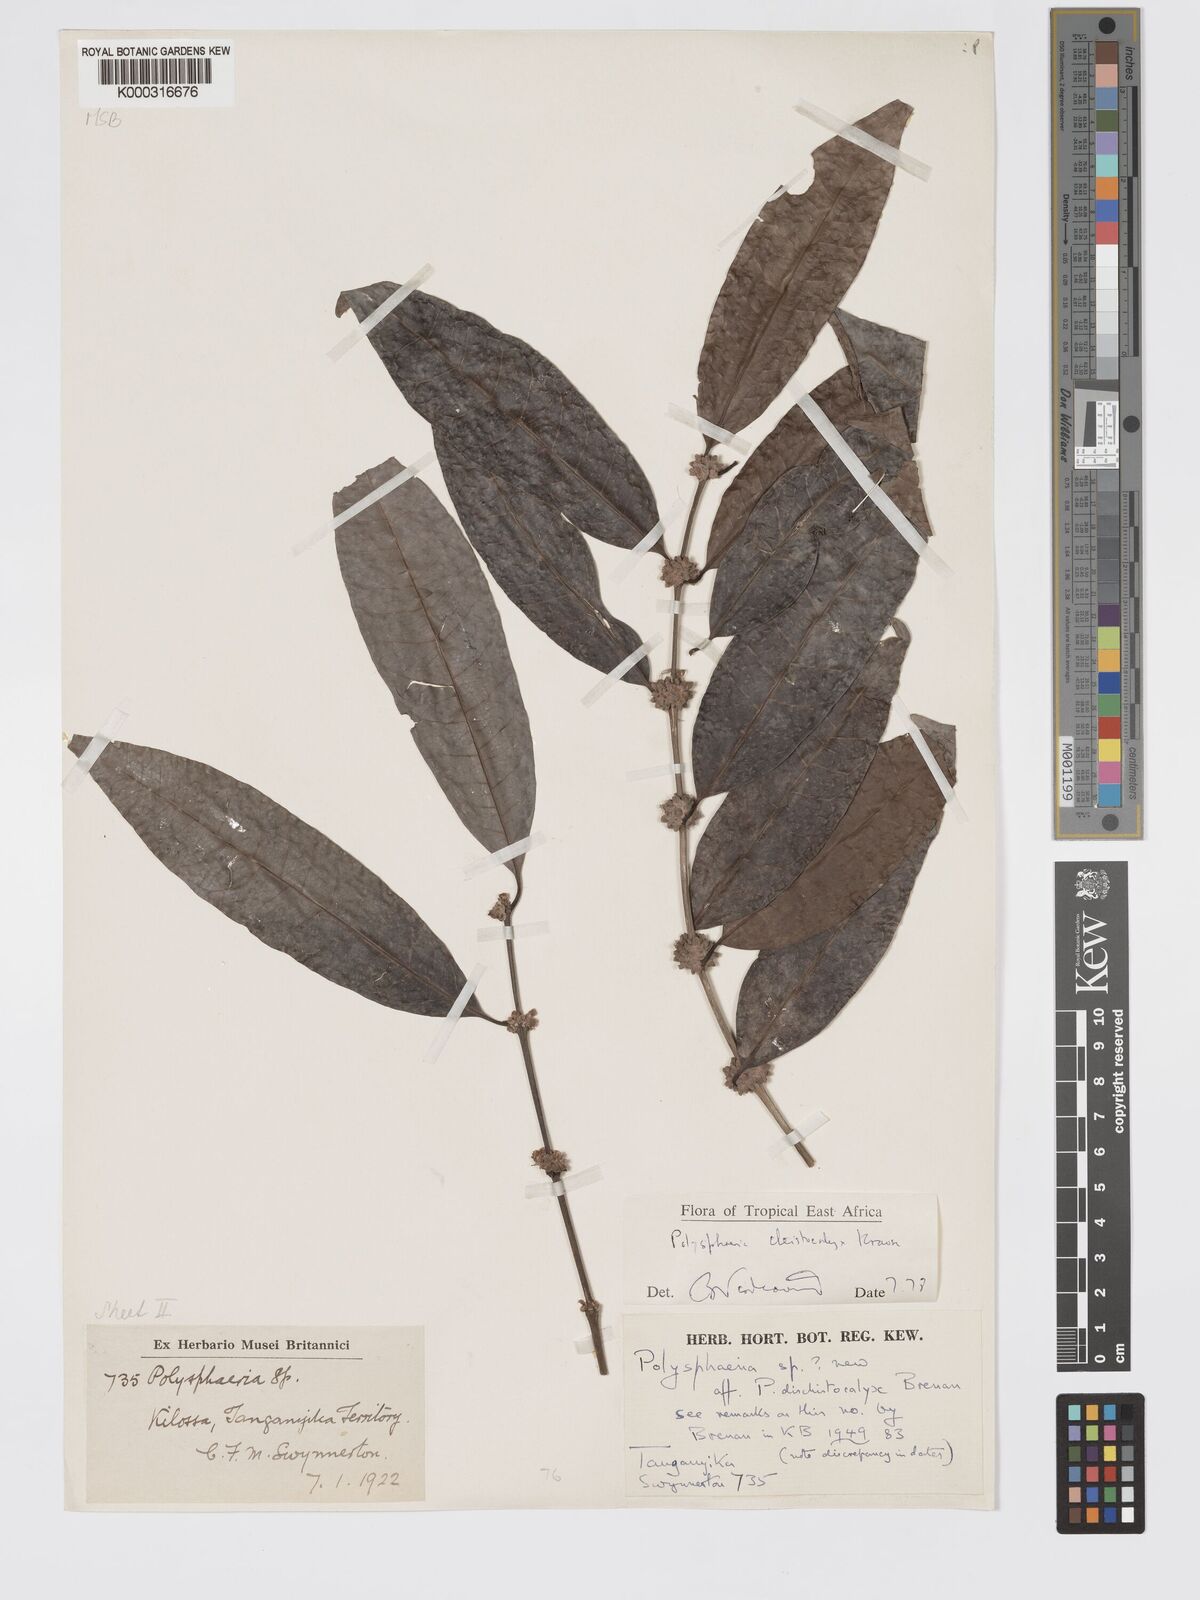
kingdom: Plantae
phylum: Tracheophyta
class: Magnoliopsida
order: Gentianales
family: Rubiaceae
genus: Polysphaeria
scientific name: Polysphaeria cleistocalyx
